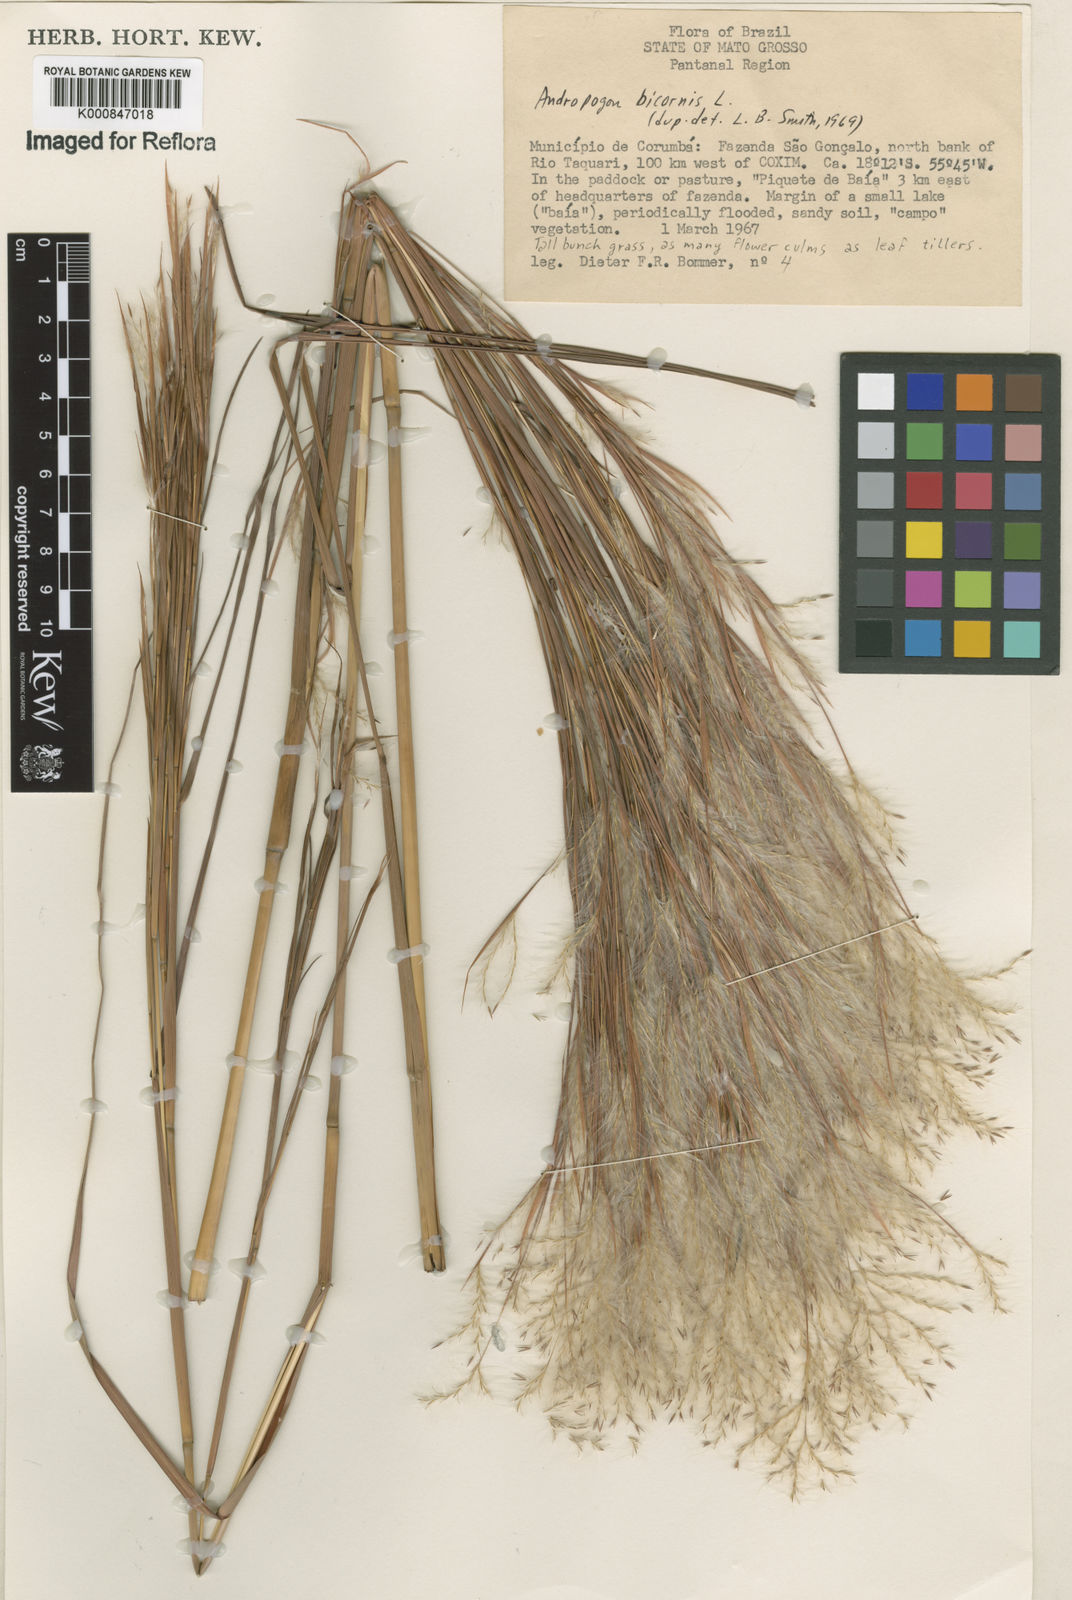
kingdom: Plantae
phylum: Tracheophyta
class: Liliopsida
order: Poales
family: Poaceae
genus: Andropogon
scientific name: Andropogon
